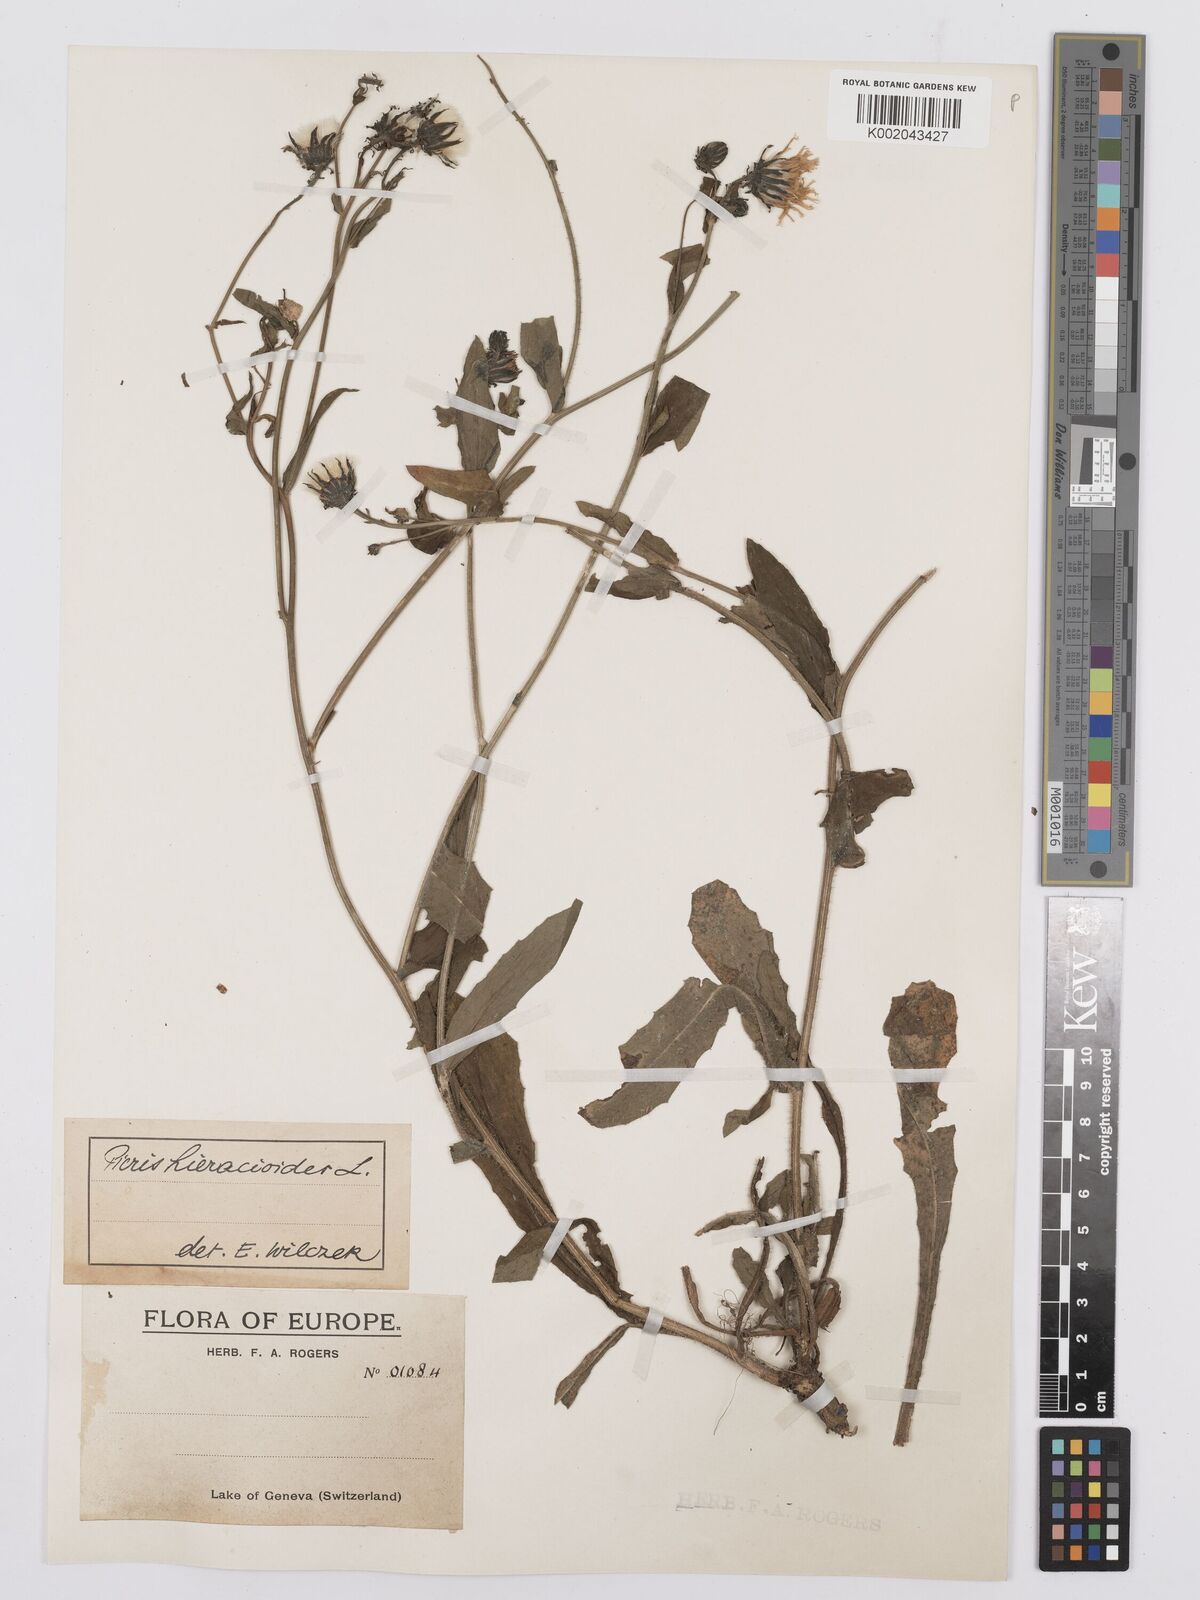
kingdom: Plantae
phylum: Tracheophyta
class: Magnoliopsida
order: Asterales
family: Asteraceae
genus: Picris
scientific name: Picris hieracioides
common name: Hawkweed oxtongue
